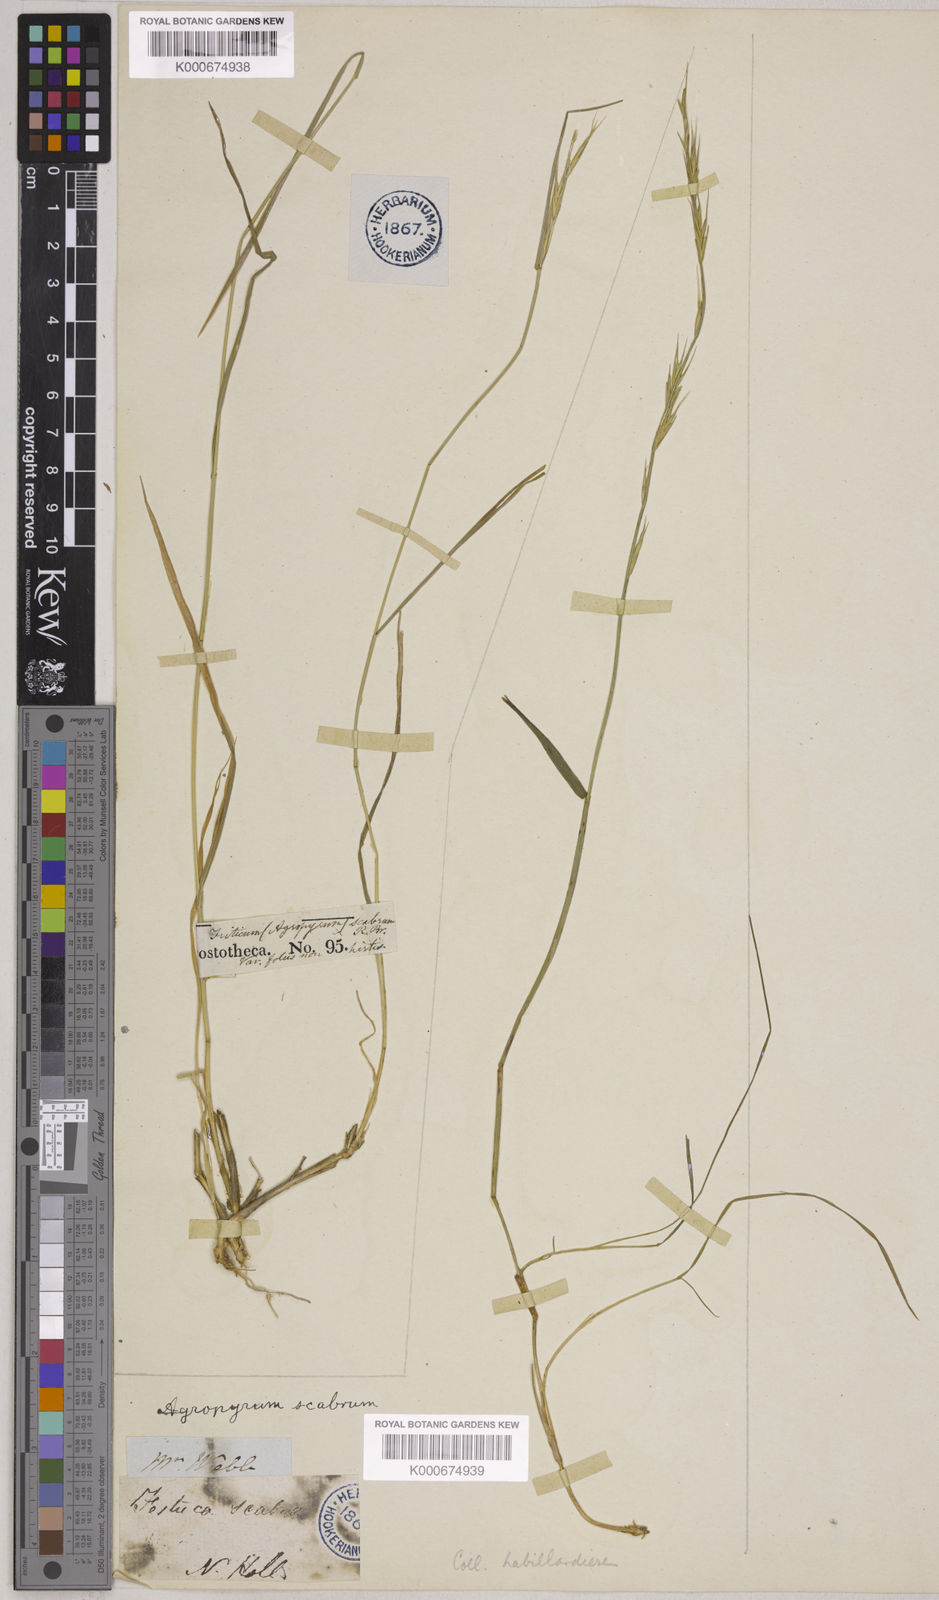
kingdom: Plantae
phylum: Tracheophyta
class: Liliopsida
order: Poales
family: Poaceae
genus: Elymus
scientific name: Elymus
